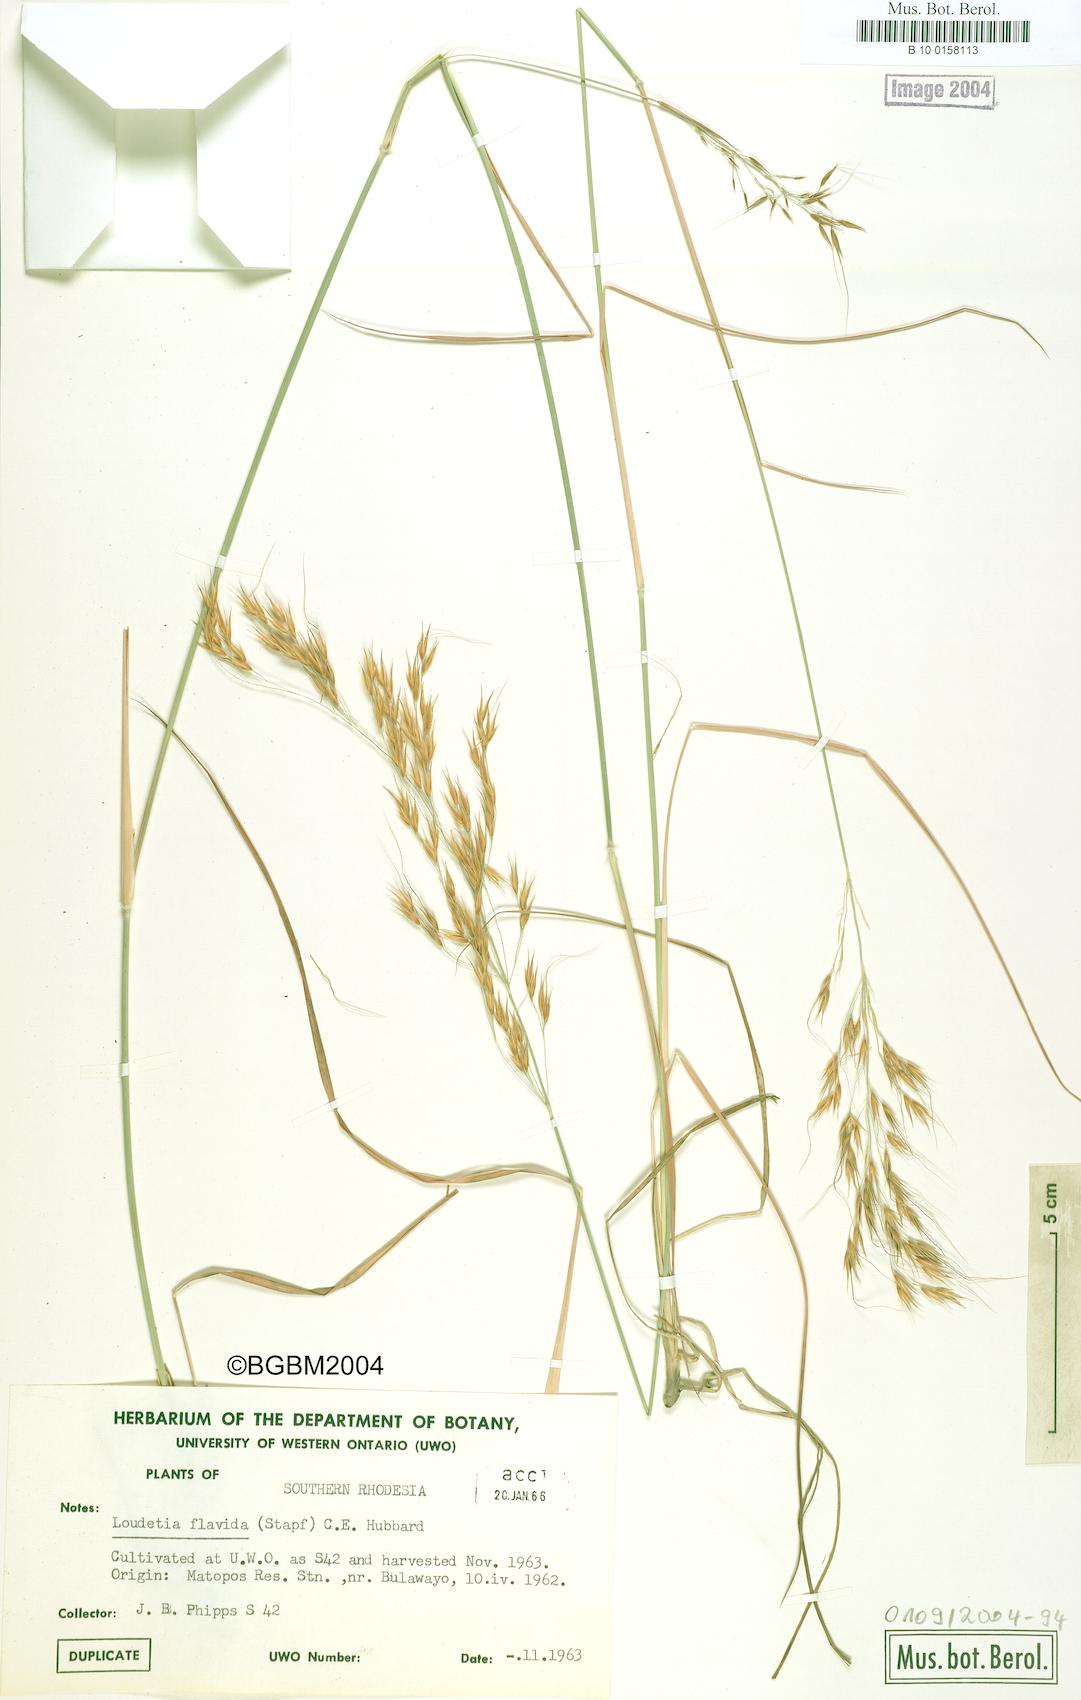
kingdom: Plantae
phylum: Tracheophyta
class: Liliopsida
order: Poales
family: Poaceae
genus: Loudetia
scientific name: Loudetia flavida
